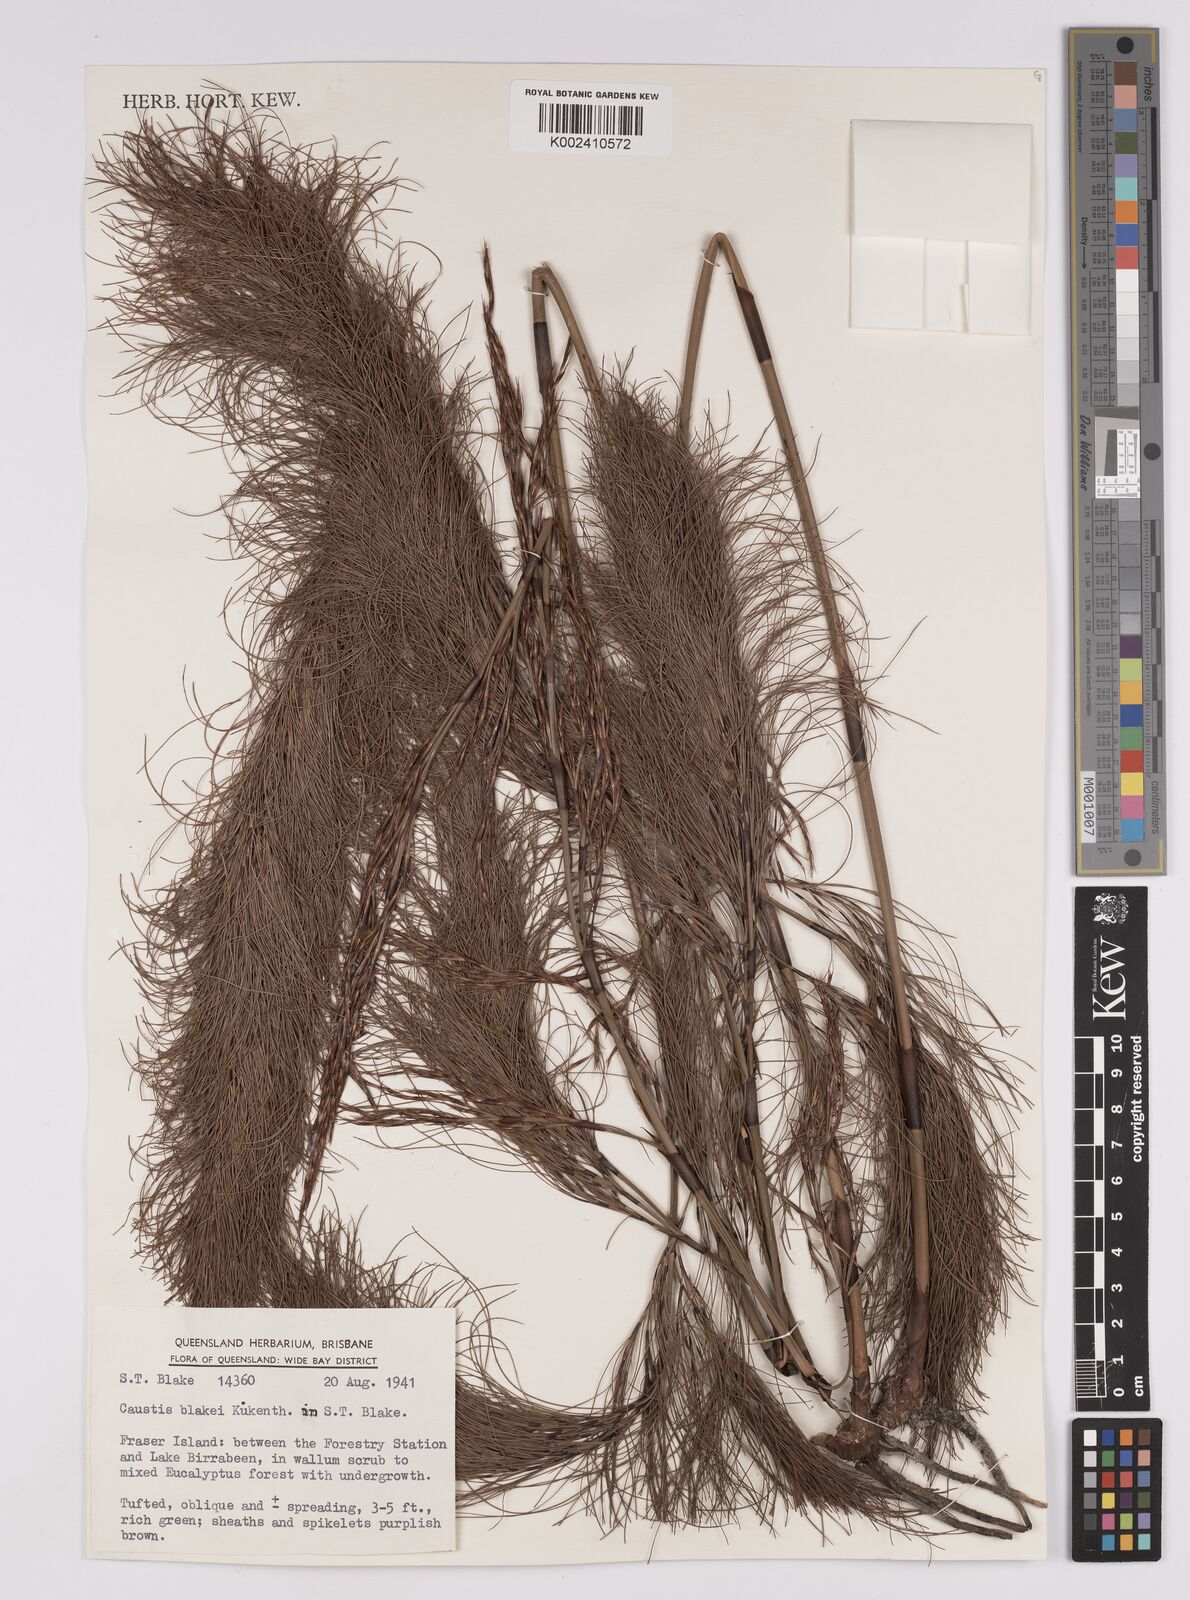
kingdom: Plantae
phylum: Tracheophyta
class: Liliopsida
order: Poales
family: Cyperaceae
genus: Caustis
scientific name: Caustis blakei
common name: Foxtail-fern
